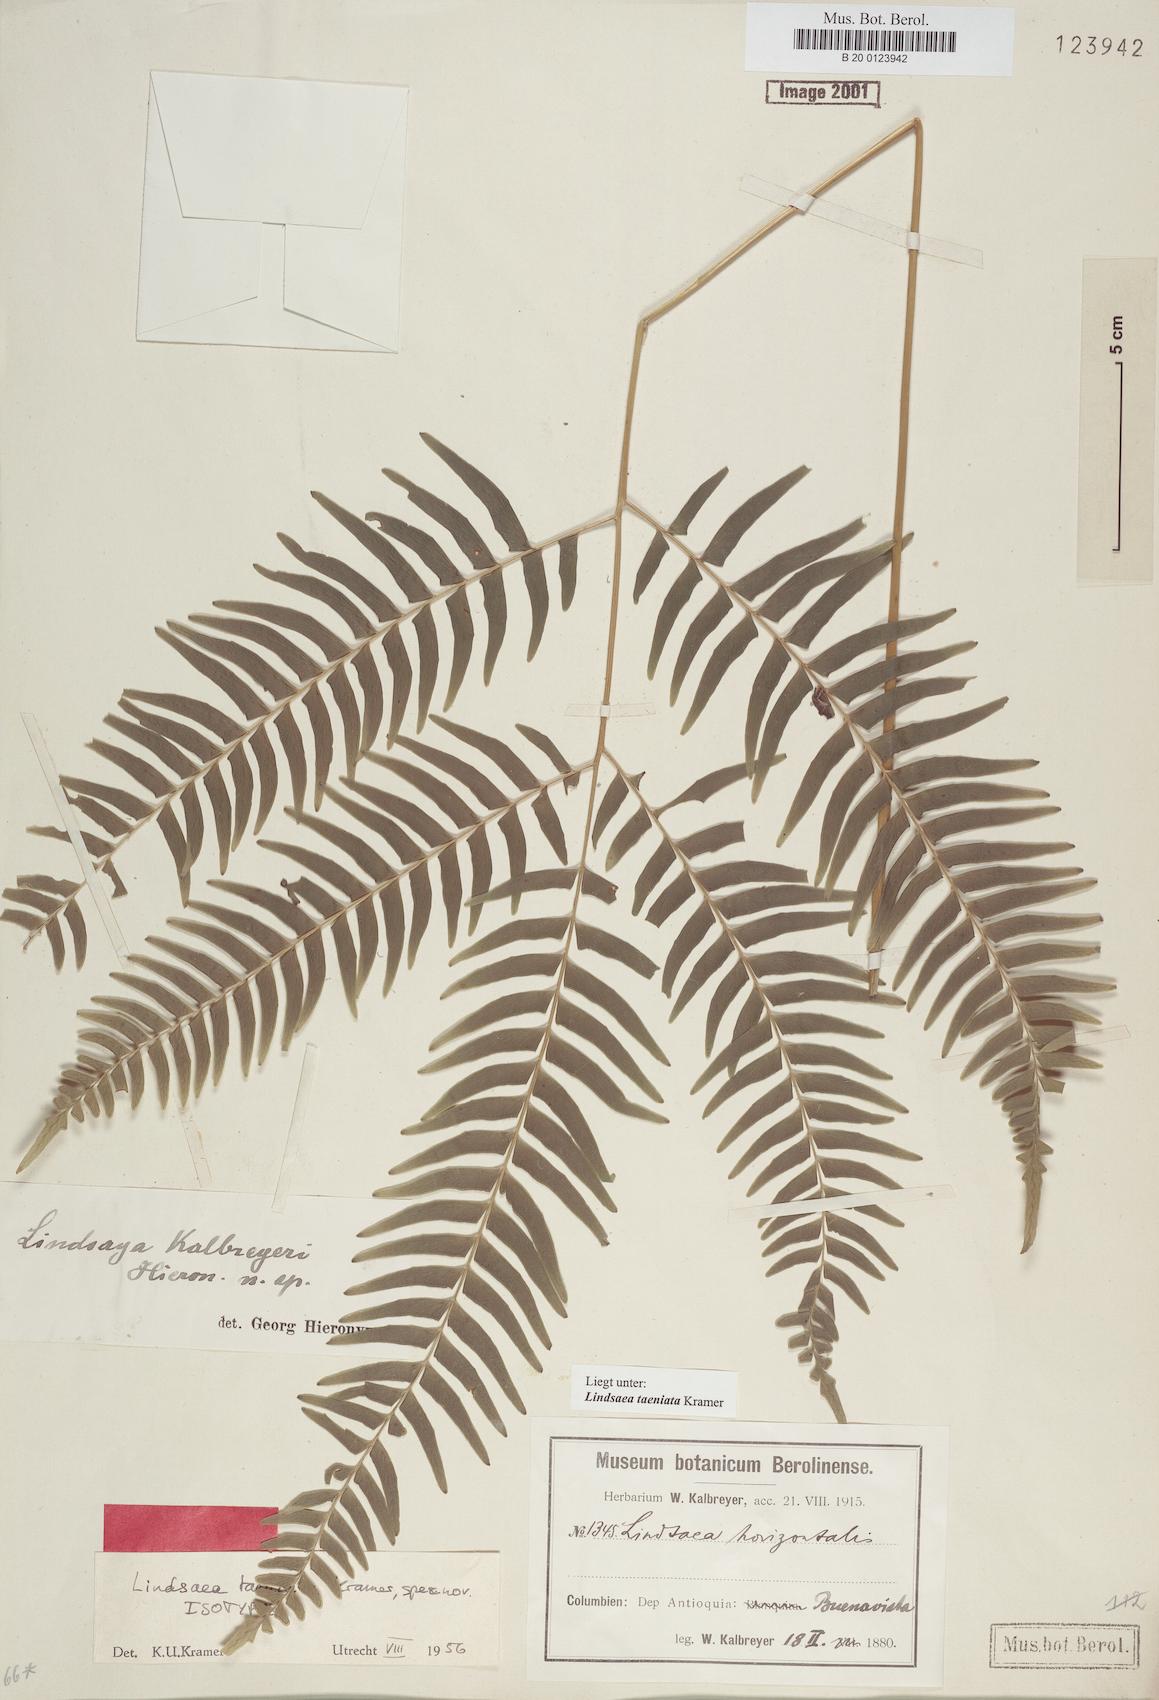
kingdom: Plantae
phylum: Tracheophyta
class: Polypodiopsida
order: Polypodiales
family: Lindsaeaceae
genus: Lindsaea
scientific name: Lindsaea taeniata
